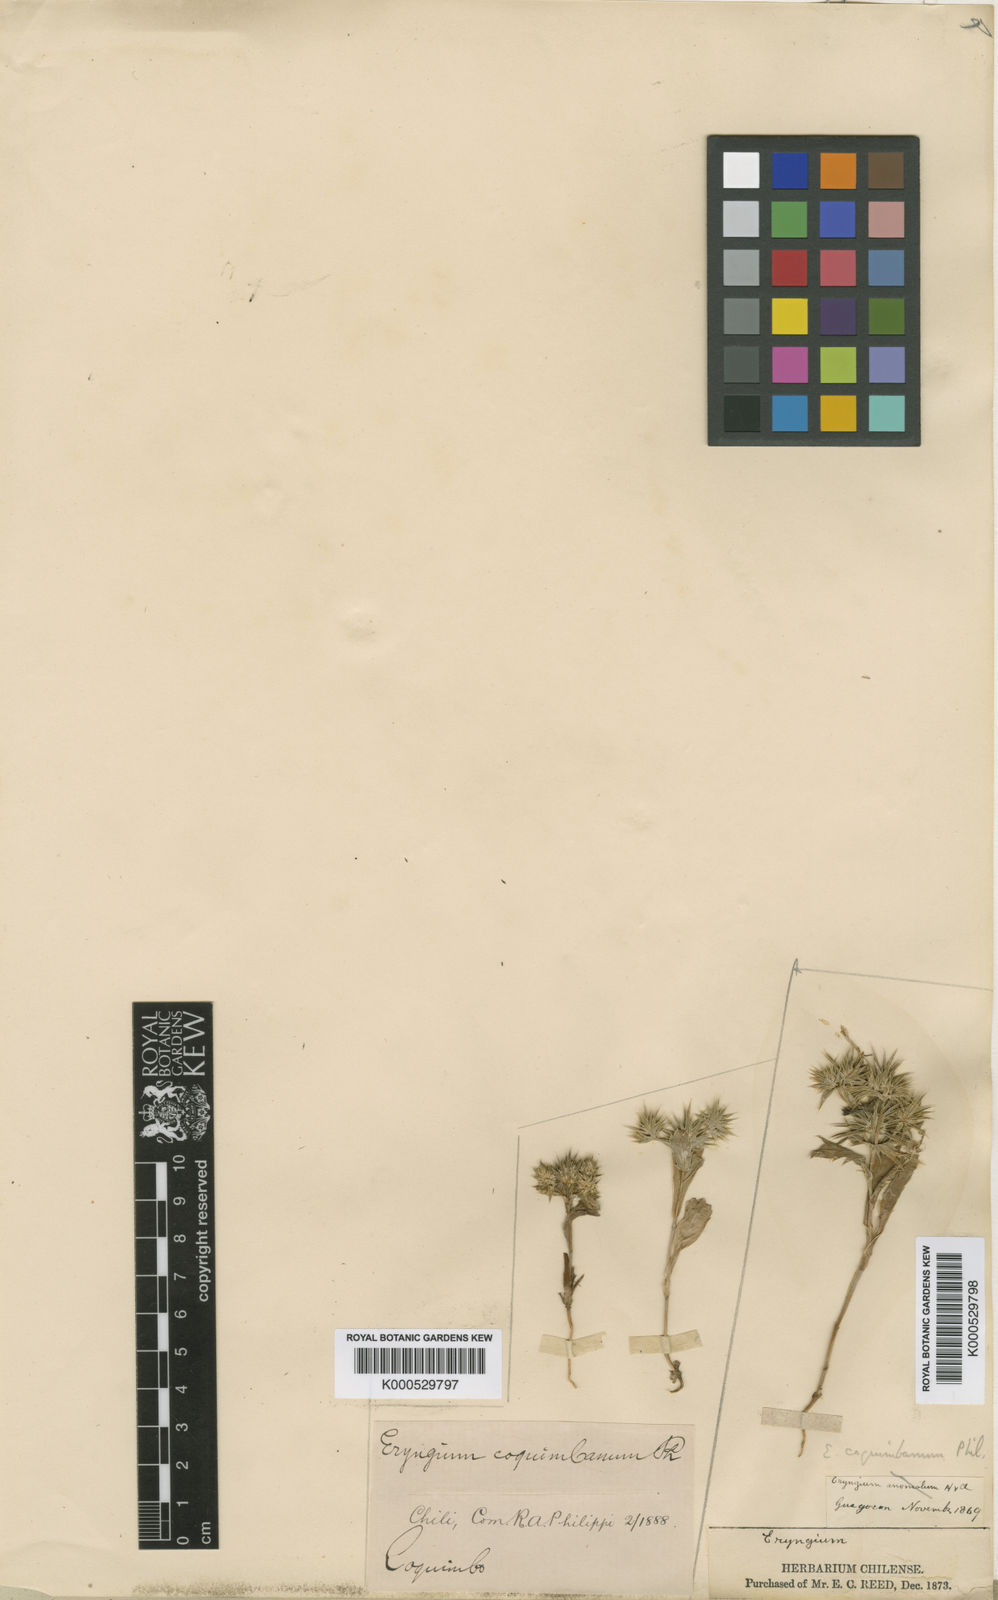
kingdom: Plantae
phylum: Tracheophyta
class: Magnoliopsida
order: Apiales
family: Apiaceae
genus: Eryngium
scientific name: Eryngium
